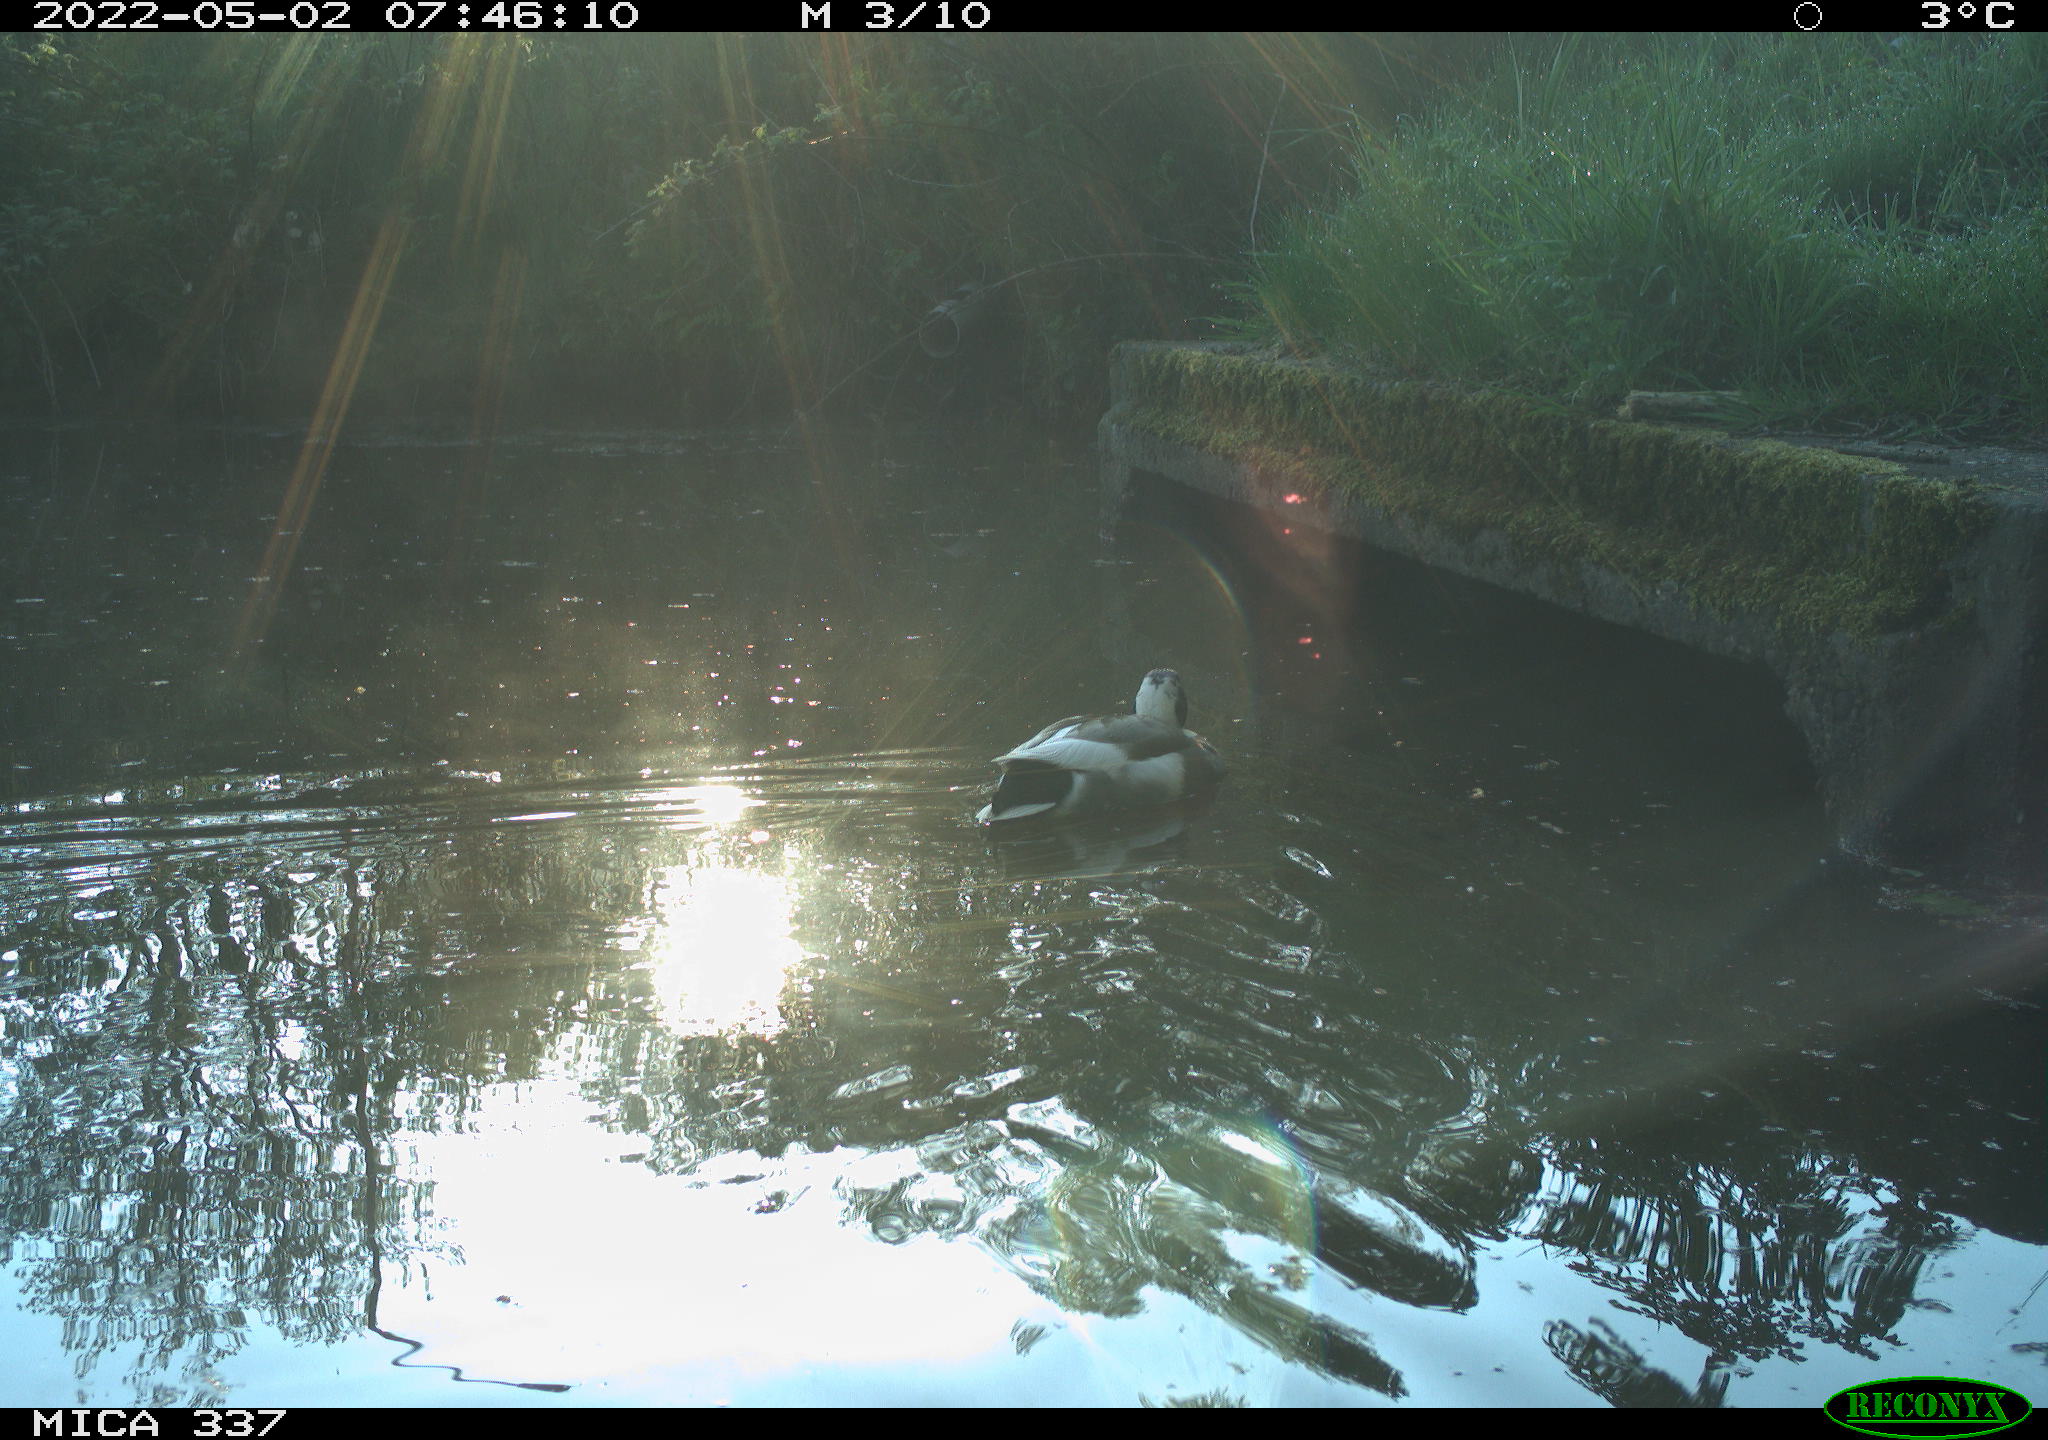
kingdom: Animalia
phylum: Chordata
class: Aves
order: Anseriformes
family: Anatidae
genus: Anas
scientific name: Anas platyrhynchos
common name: Mallard
